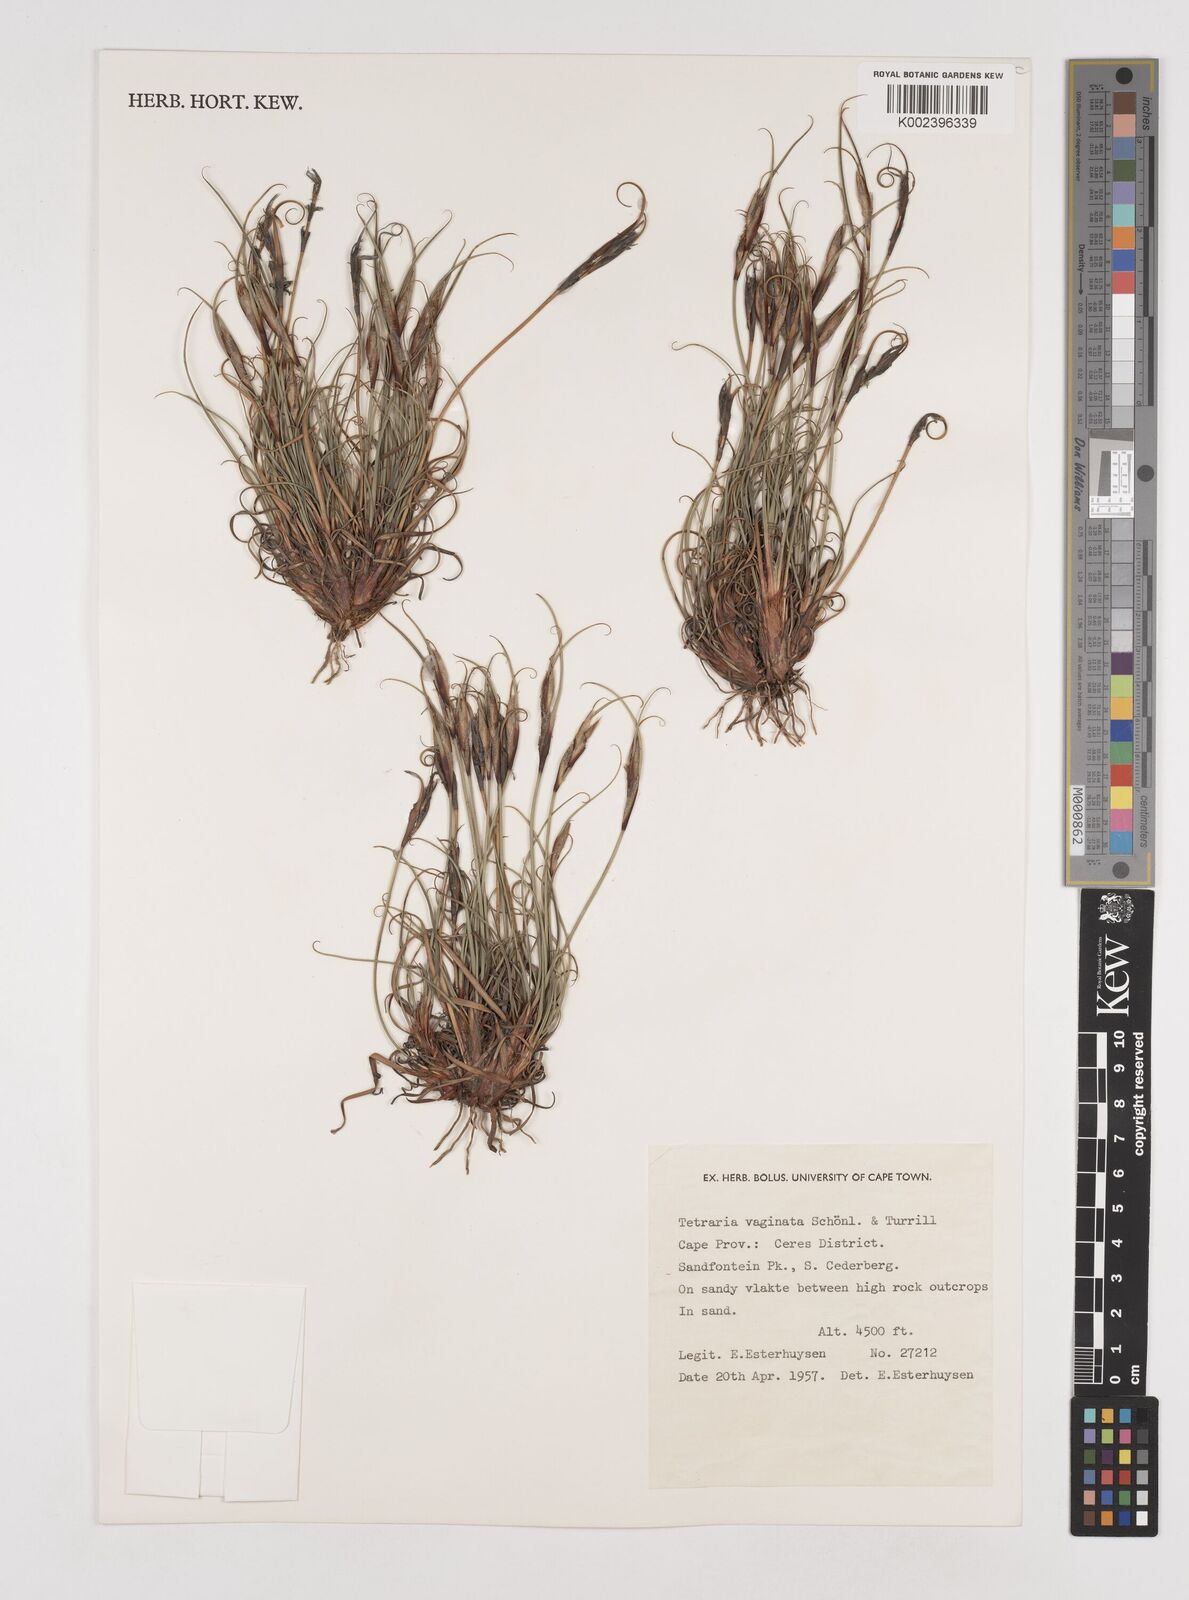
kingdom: Plantae
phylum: Tracheophyta
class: Liliopsida
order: Poales
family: Cyperaceae
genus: Tetraria
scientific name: Tetraria vaginata
